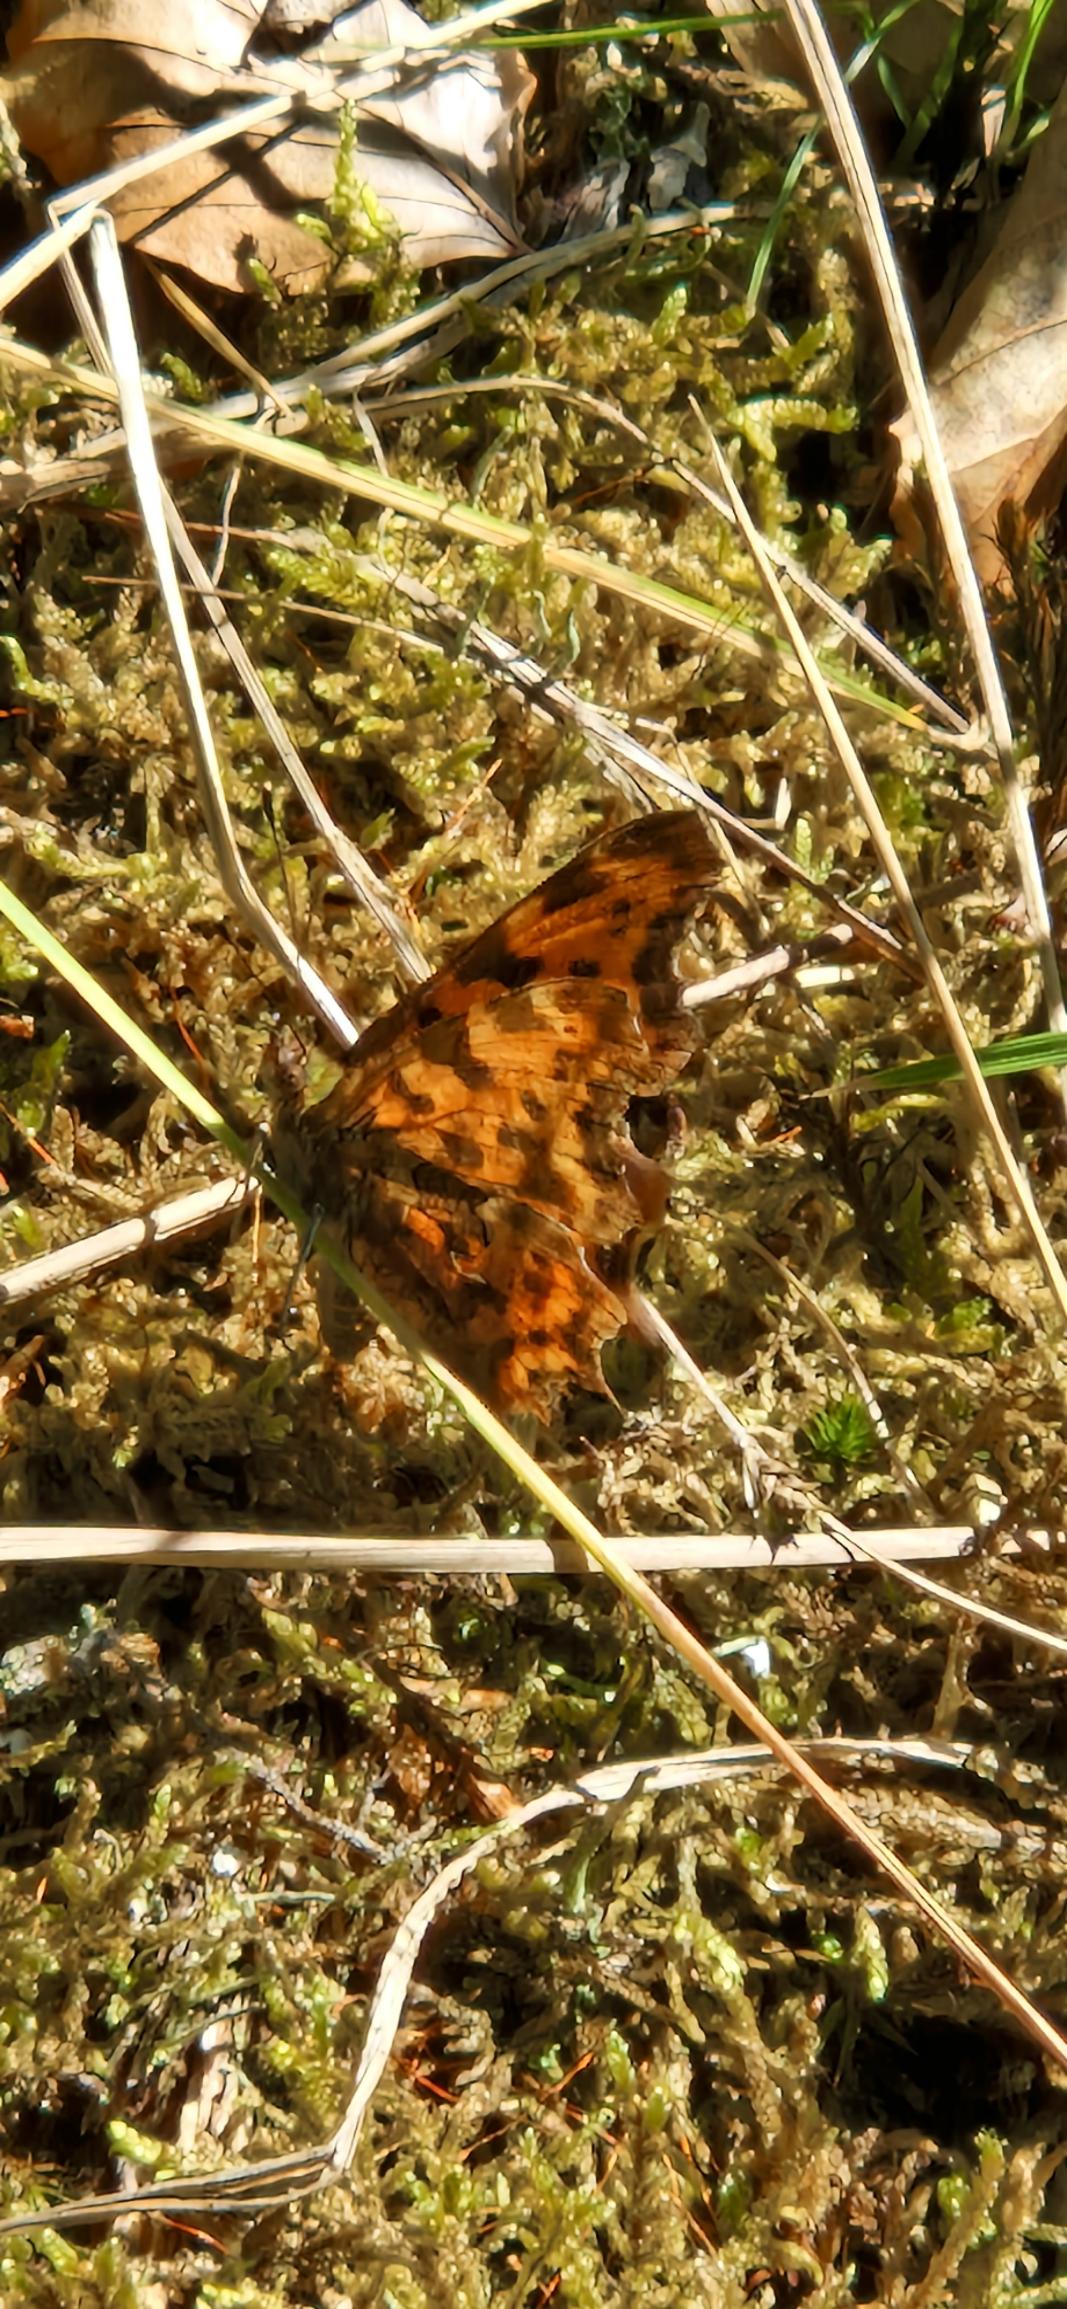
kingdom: Animalia
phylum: Arthropoda
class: Insecta
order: Lepidoptera
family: Nymphalidae
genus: Polygonia
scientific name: Polygonia c-album
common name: Det hvide C
